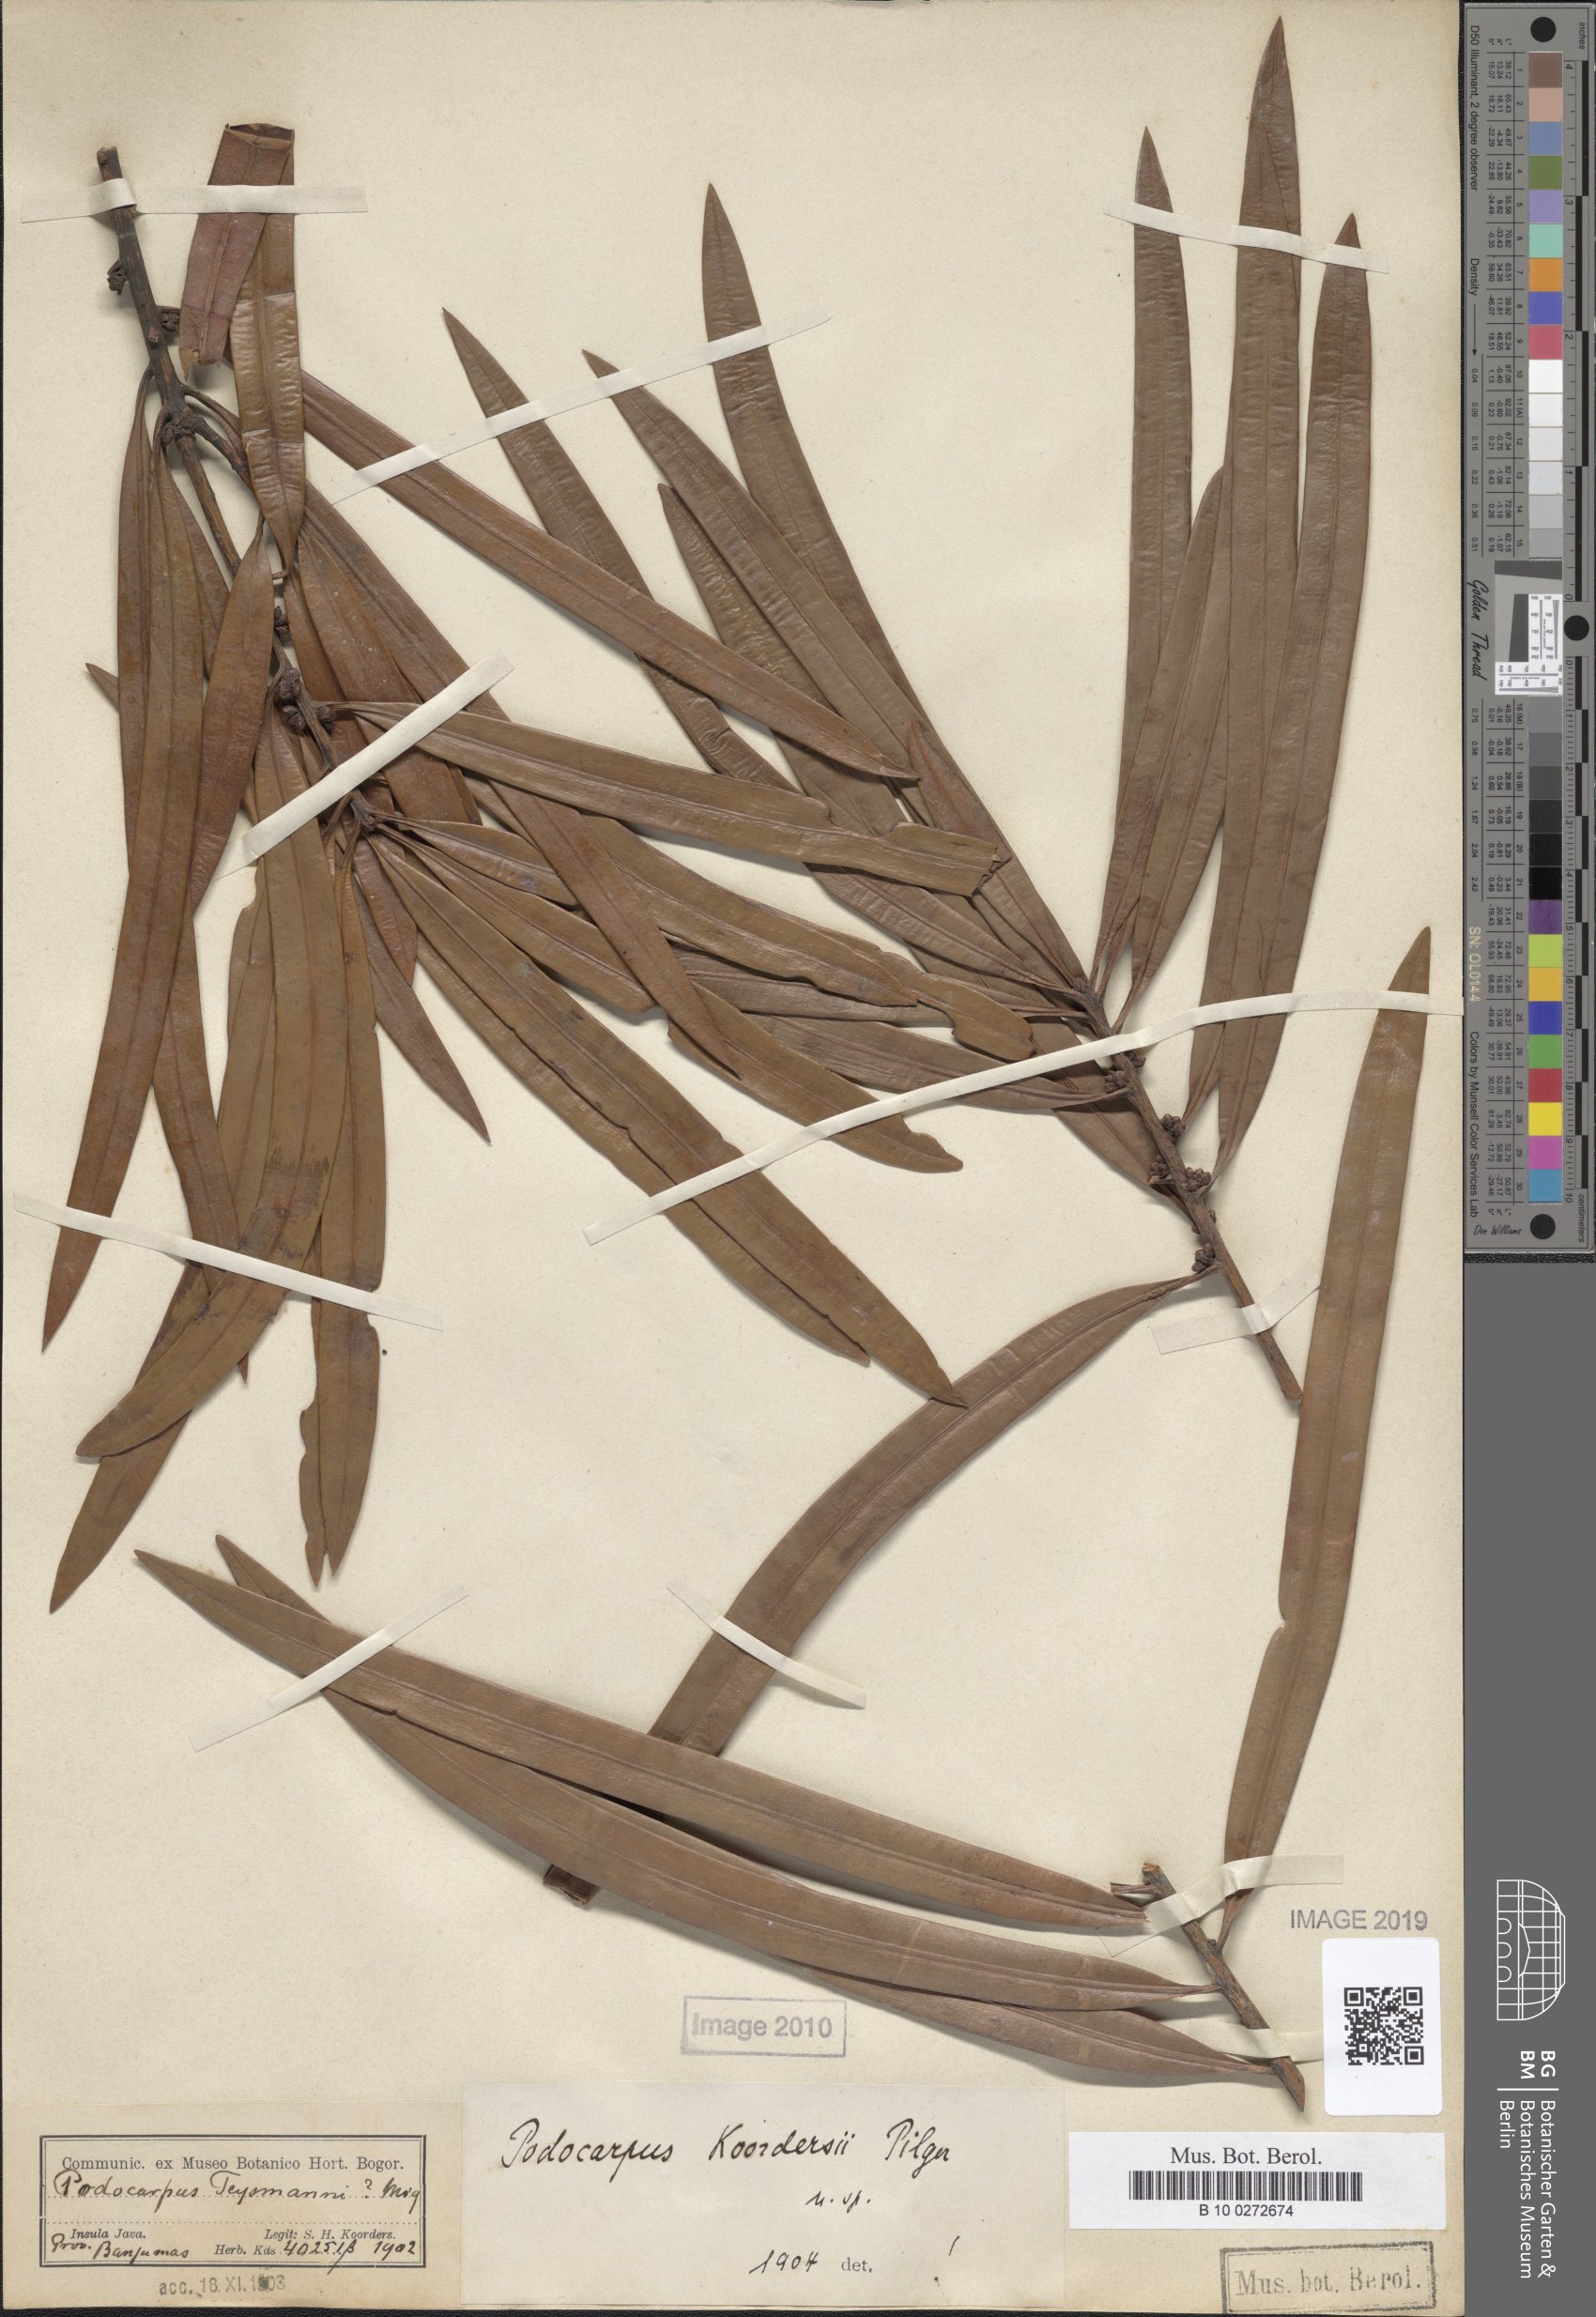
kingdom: Plantae
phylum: Tracheophyta
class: Pinopsida
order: Pinales
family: Podocarpaceae
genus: Podocarpus
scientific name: Podocarpus rumphii
